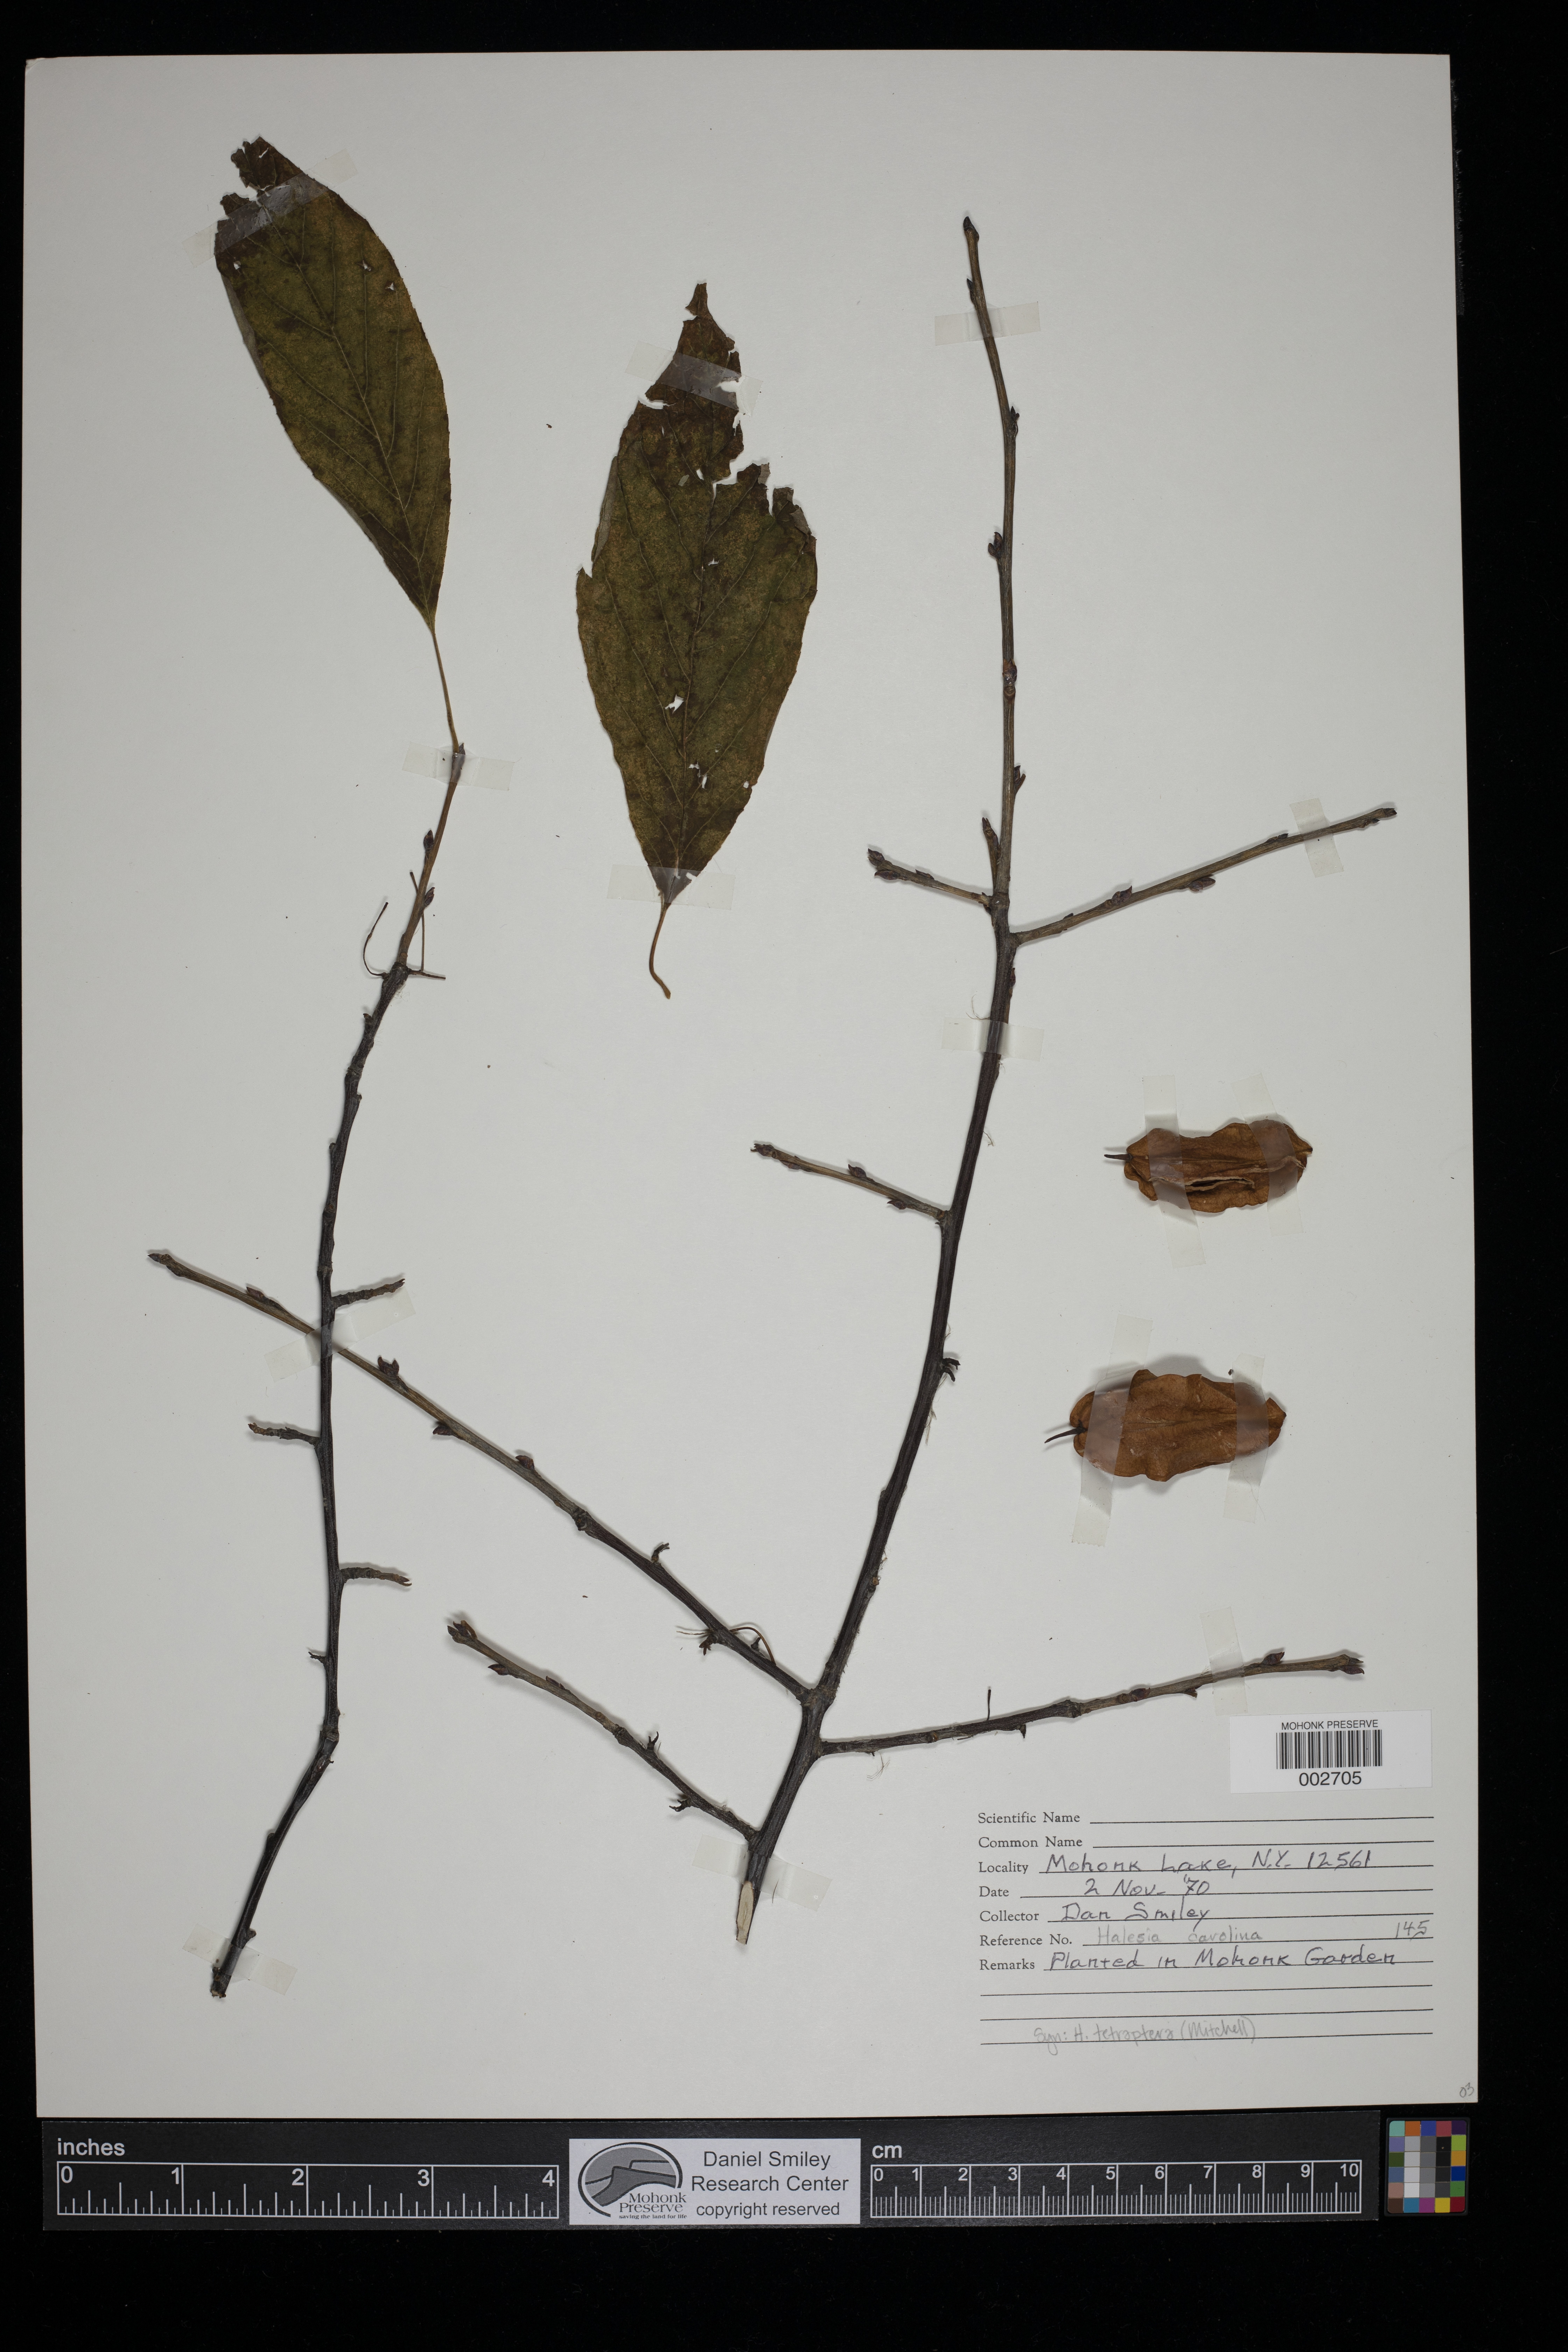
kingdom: Plantae
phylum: Tracheophyta
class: Magnoliopsida
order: Ericales
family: Styracaceae
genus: Halesia
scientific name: Halesia tetraptera
